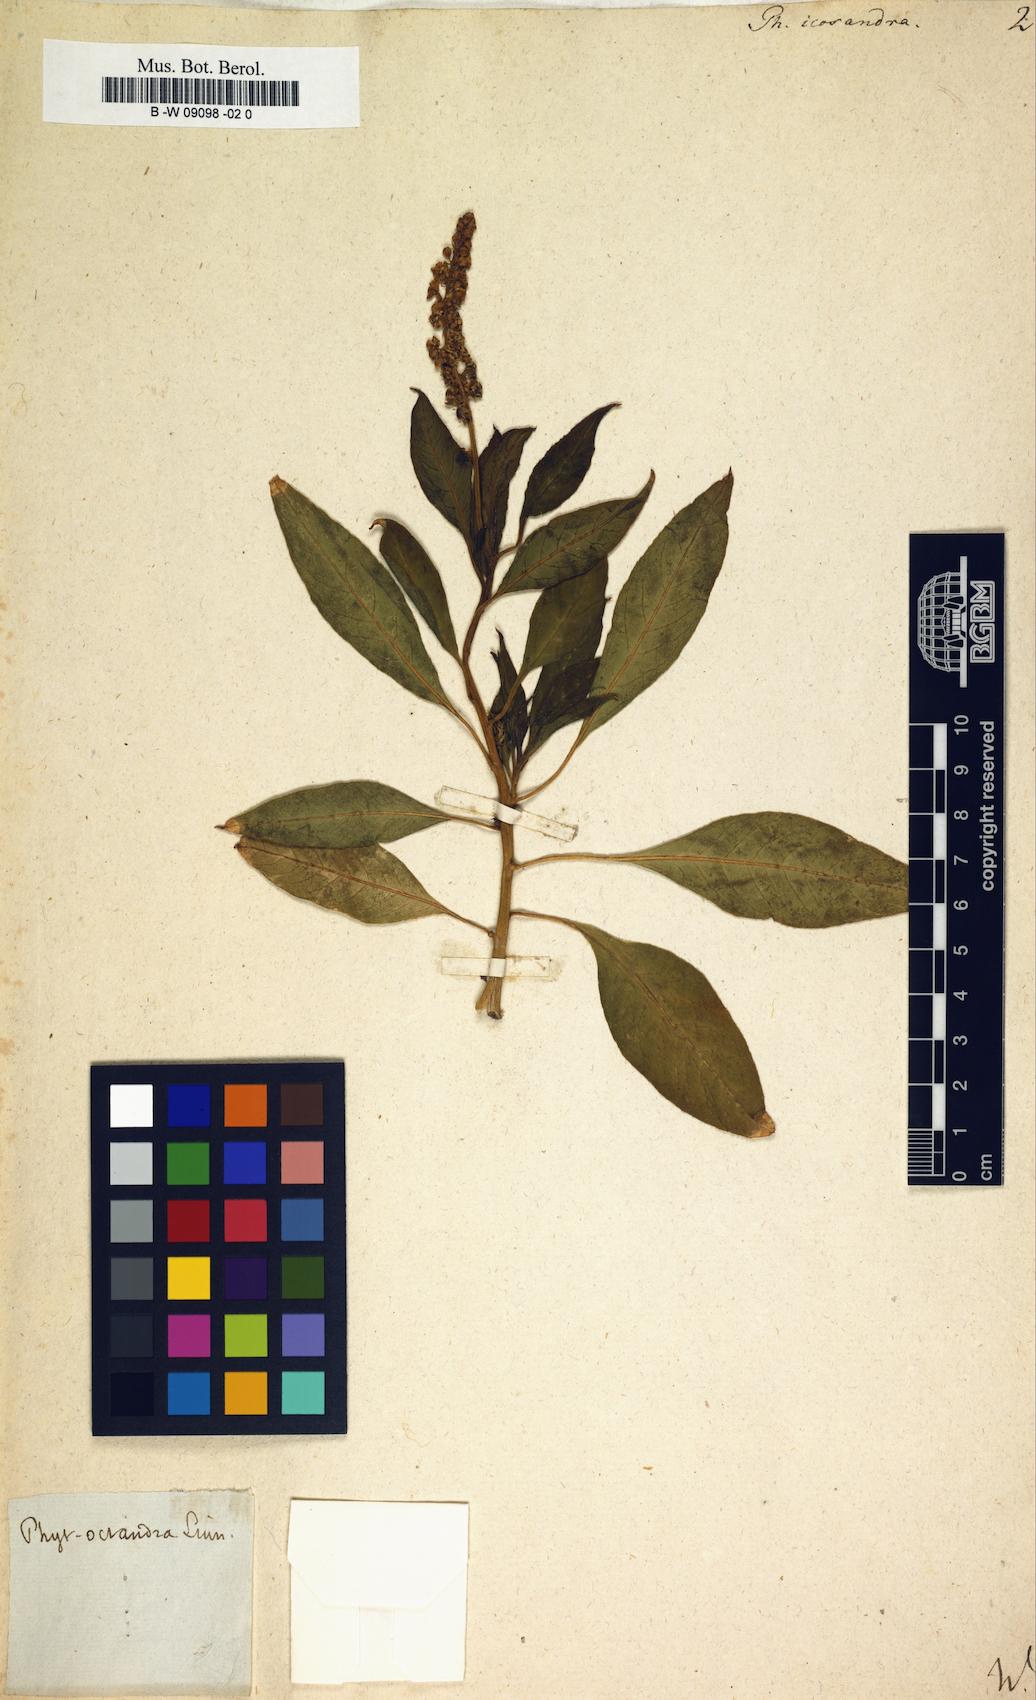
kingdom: Plantae
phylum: Tracheophyta
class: Magnoliopsida
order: Caryophyllales
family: Phytolaccaceae
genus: Phytolacca
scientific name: Phytolacca icosandra
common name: Button pokeweed
